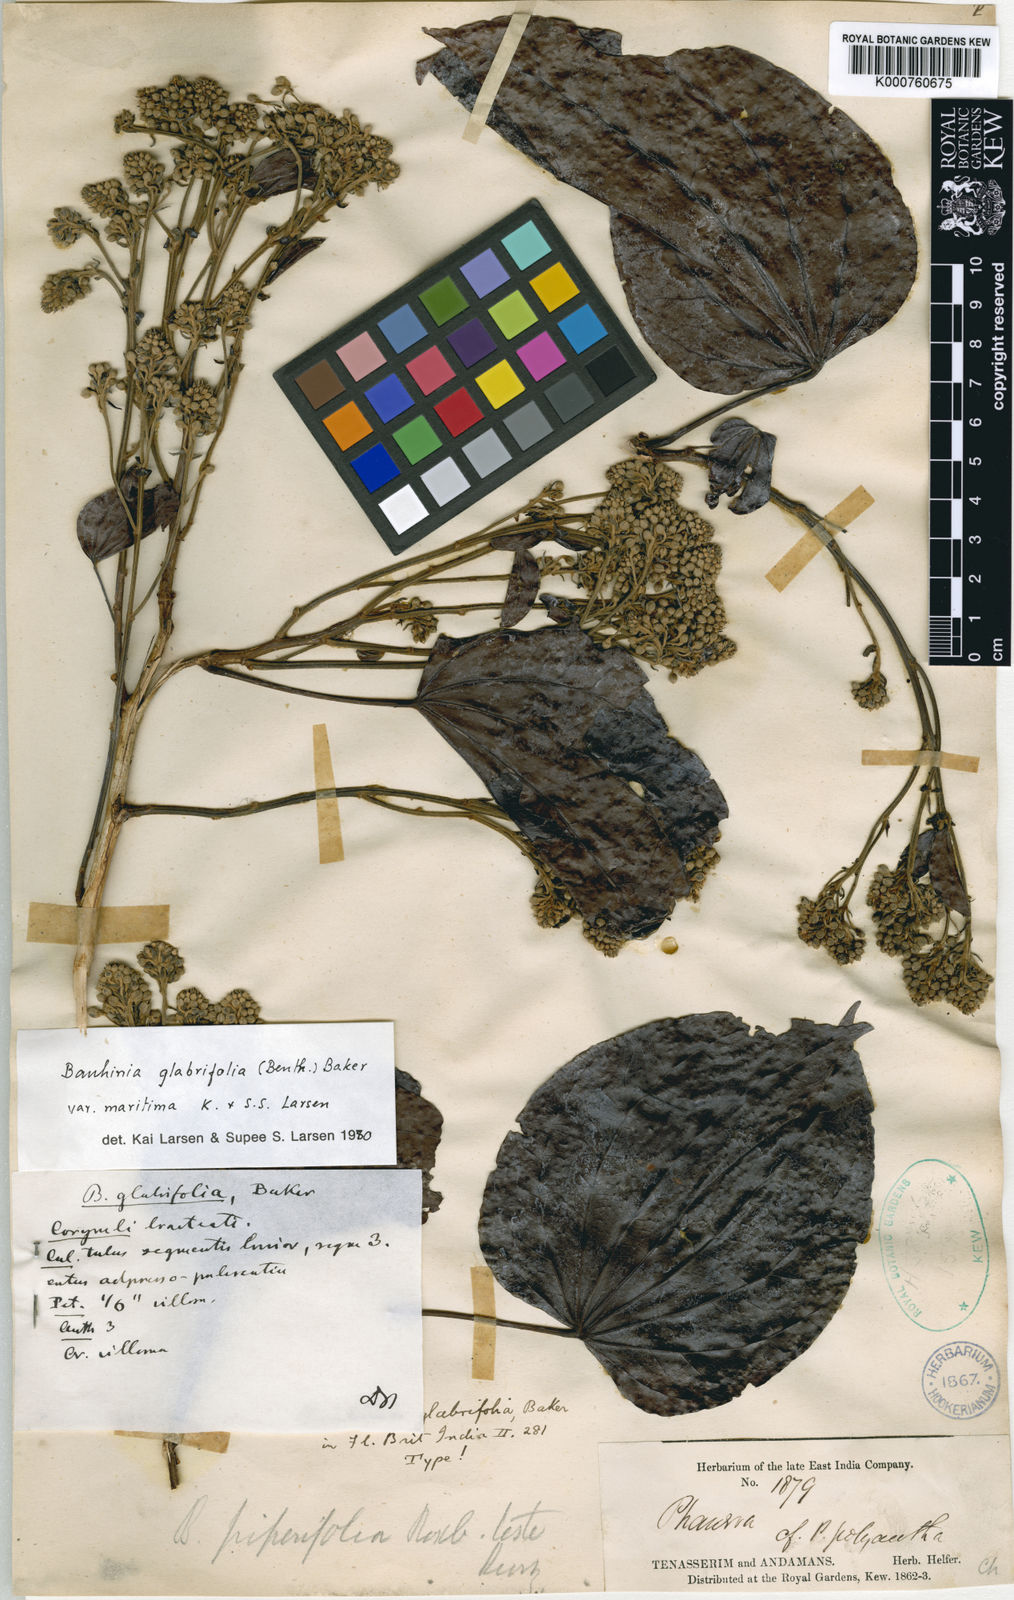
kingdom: Plantae
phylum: Tracheophyta
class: Magnoliopsida
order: Fabales
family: Fabaceae
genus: Phanera
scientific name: Phanera glabrifolia
